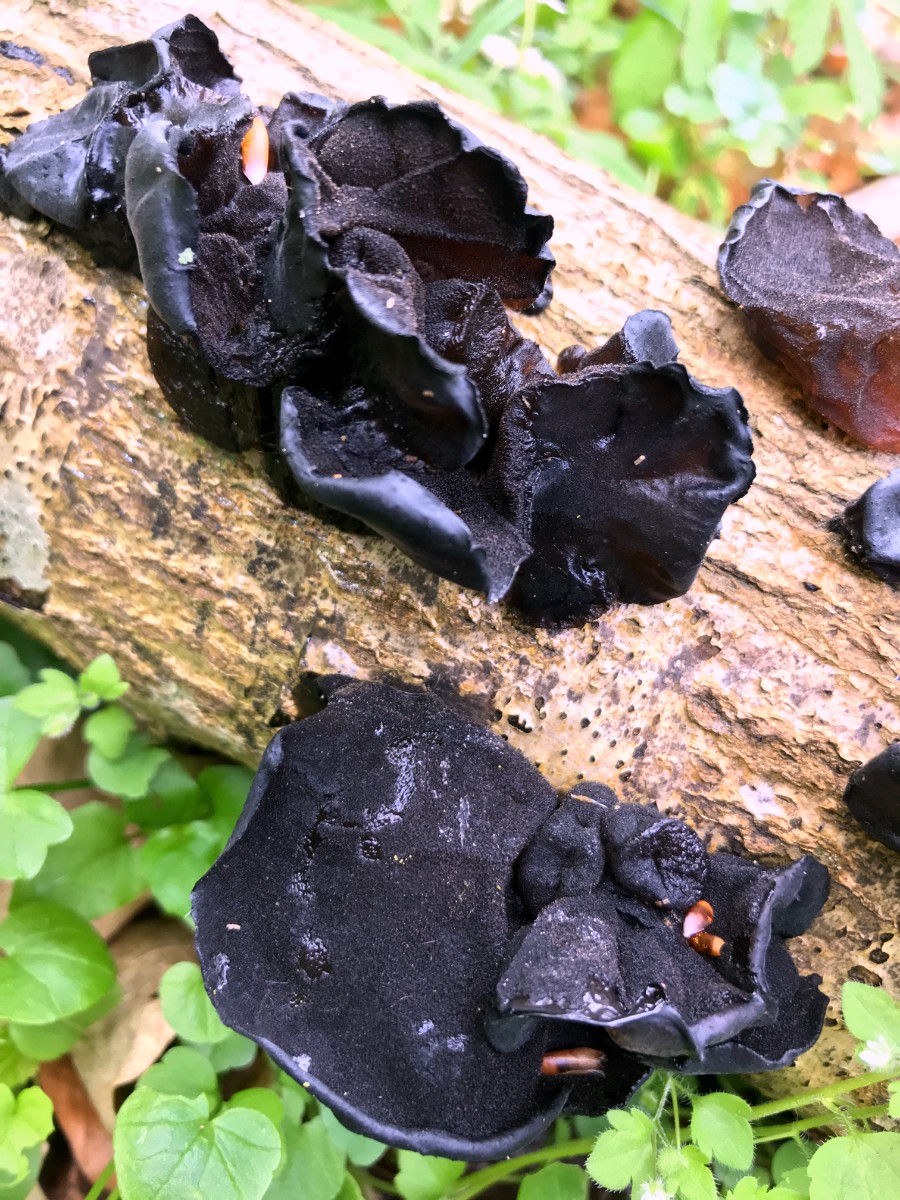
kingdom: Fungi
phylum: Basidiomycota
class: Agaricomycetes
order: Auriculariales
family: Auriculariaceae
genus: Exidia
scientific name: Exidia glandulosa
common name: ege-bævretop
